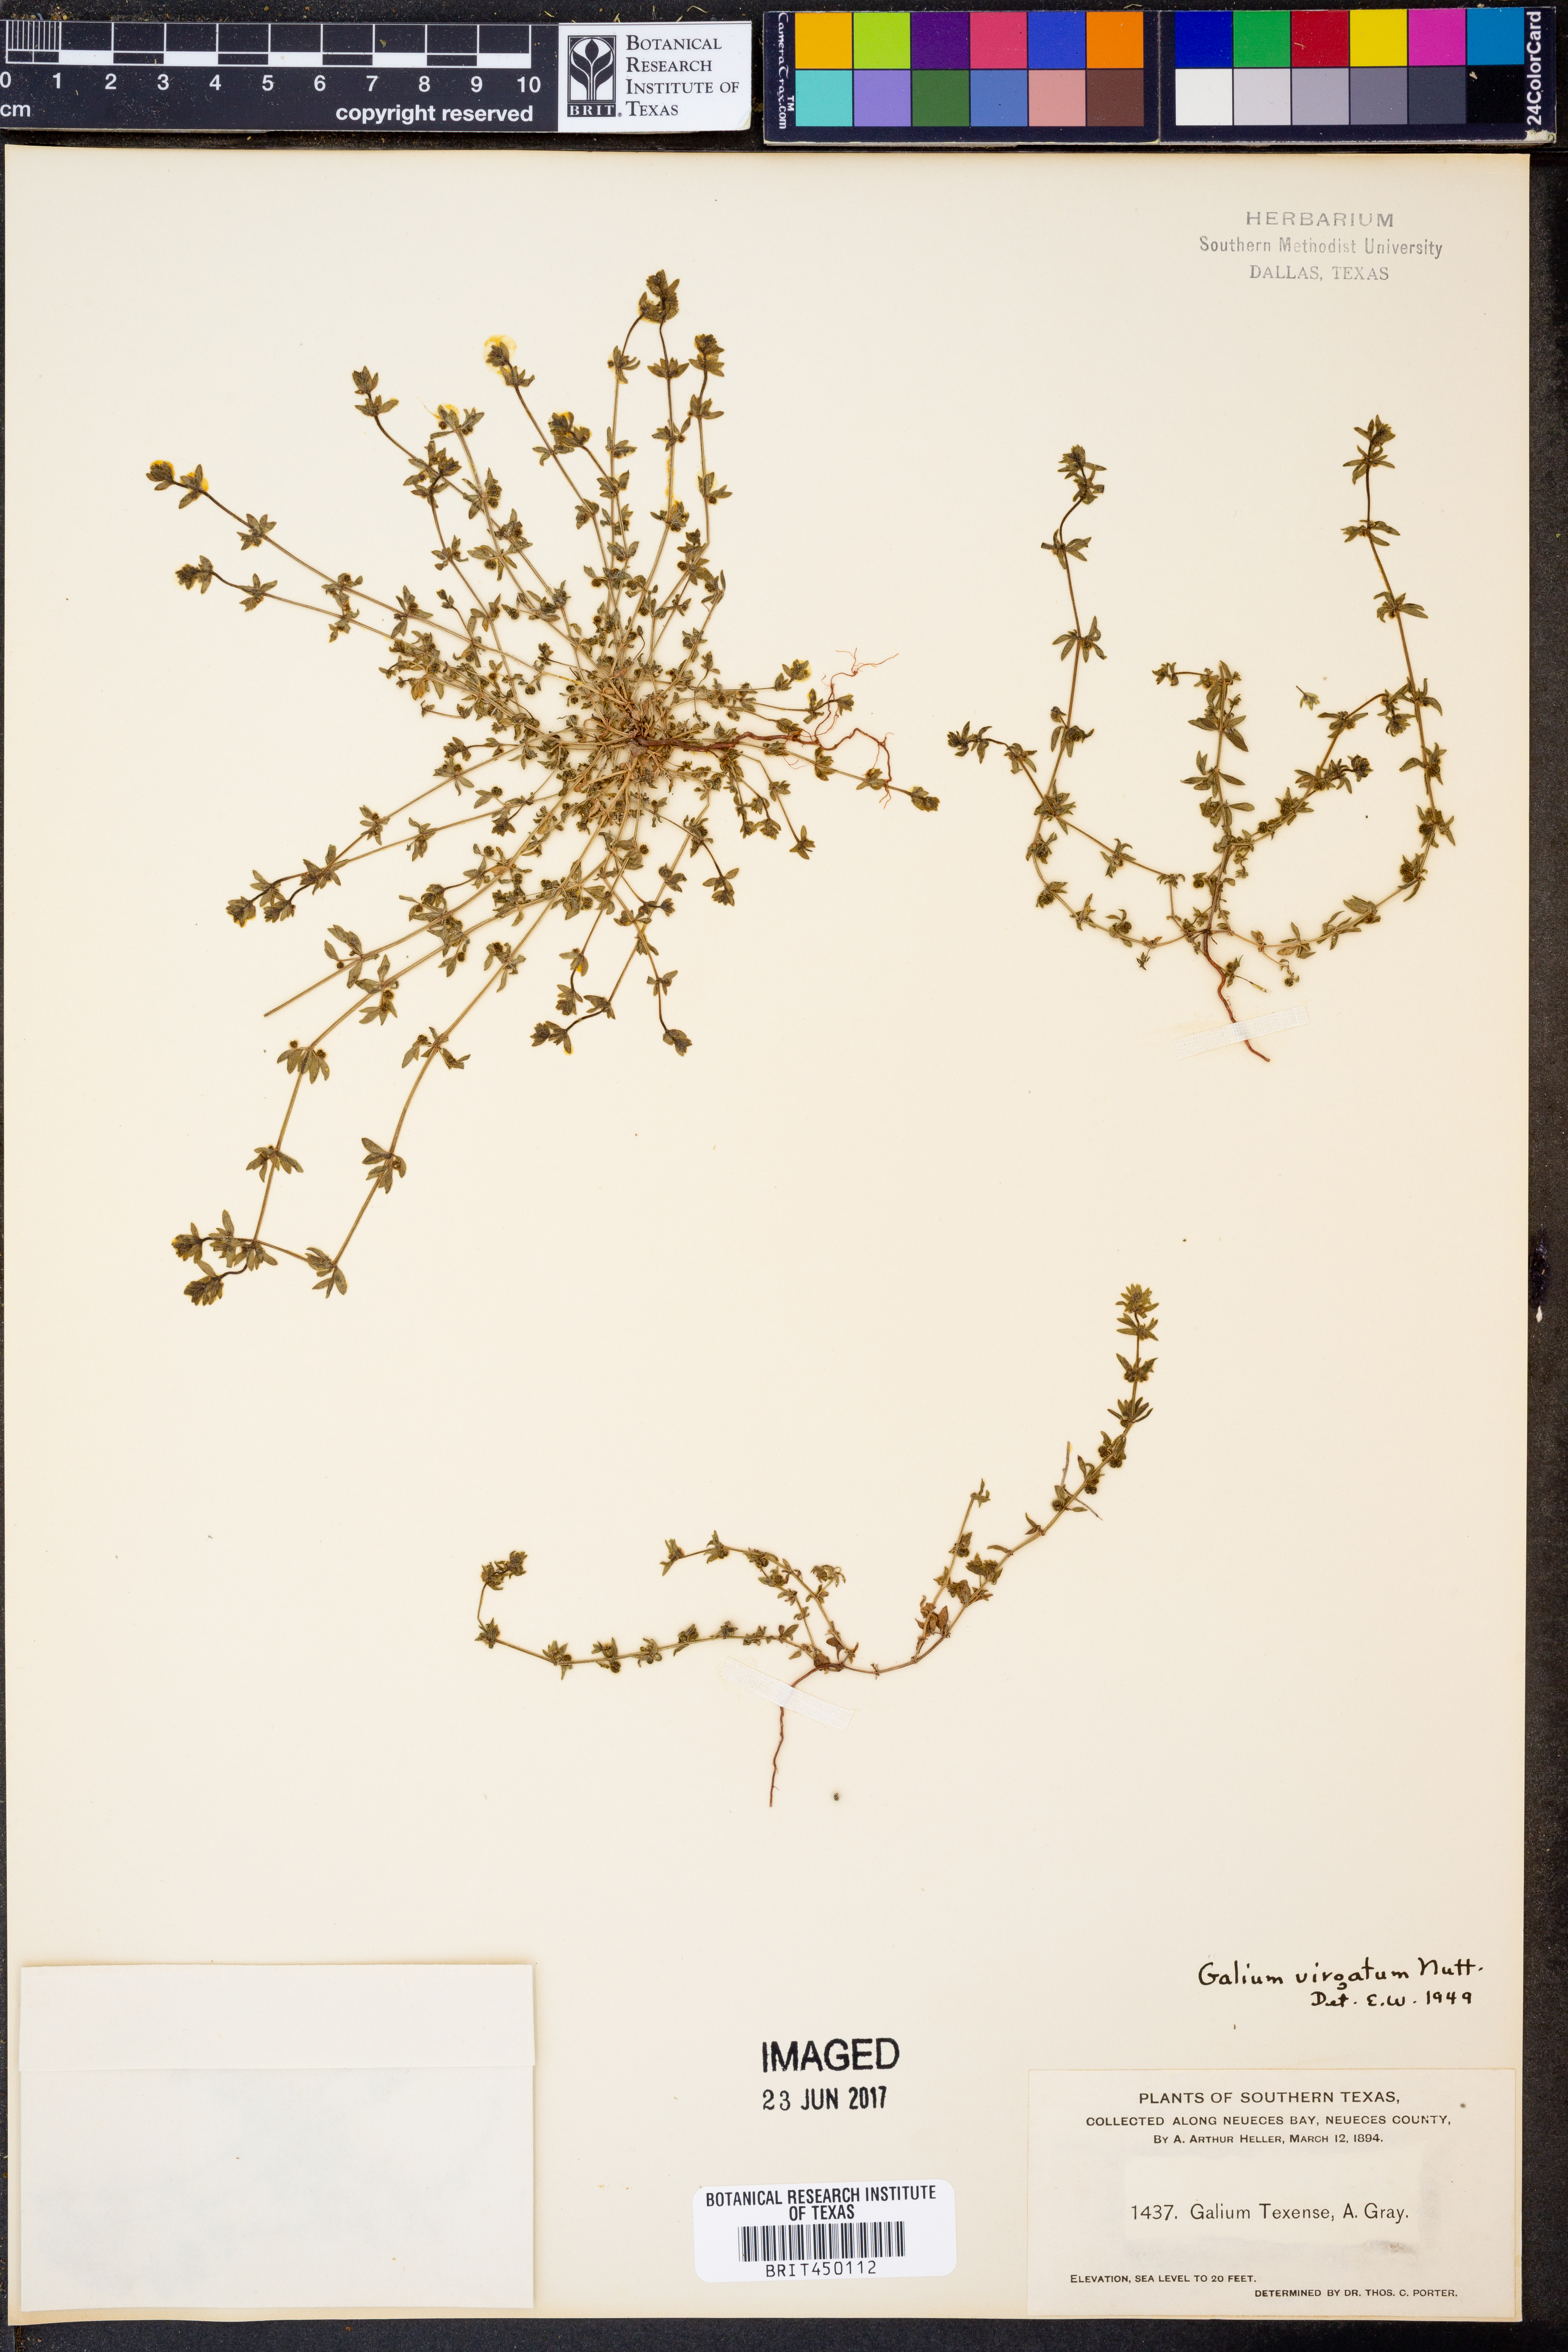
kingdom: Plantae
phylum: Tracheophyta
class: Magnoliopsida
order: Gentianales
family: Rubiaceae
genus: Galium
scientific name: Galium virgatum
